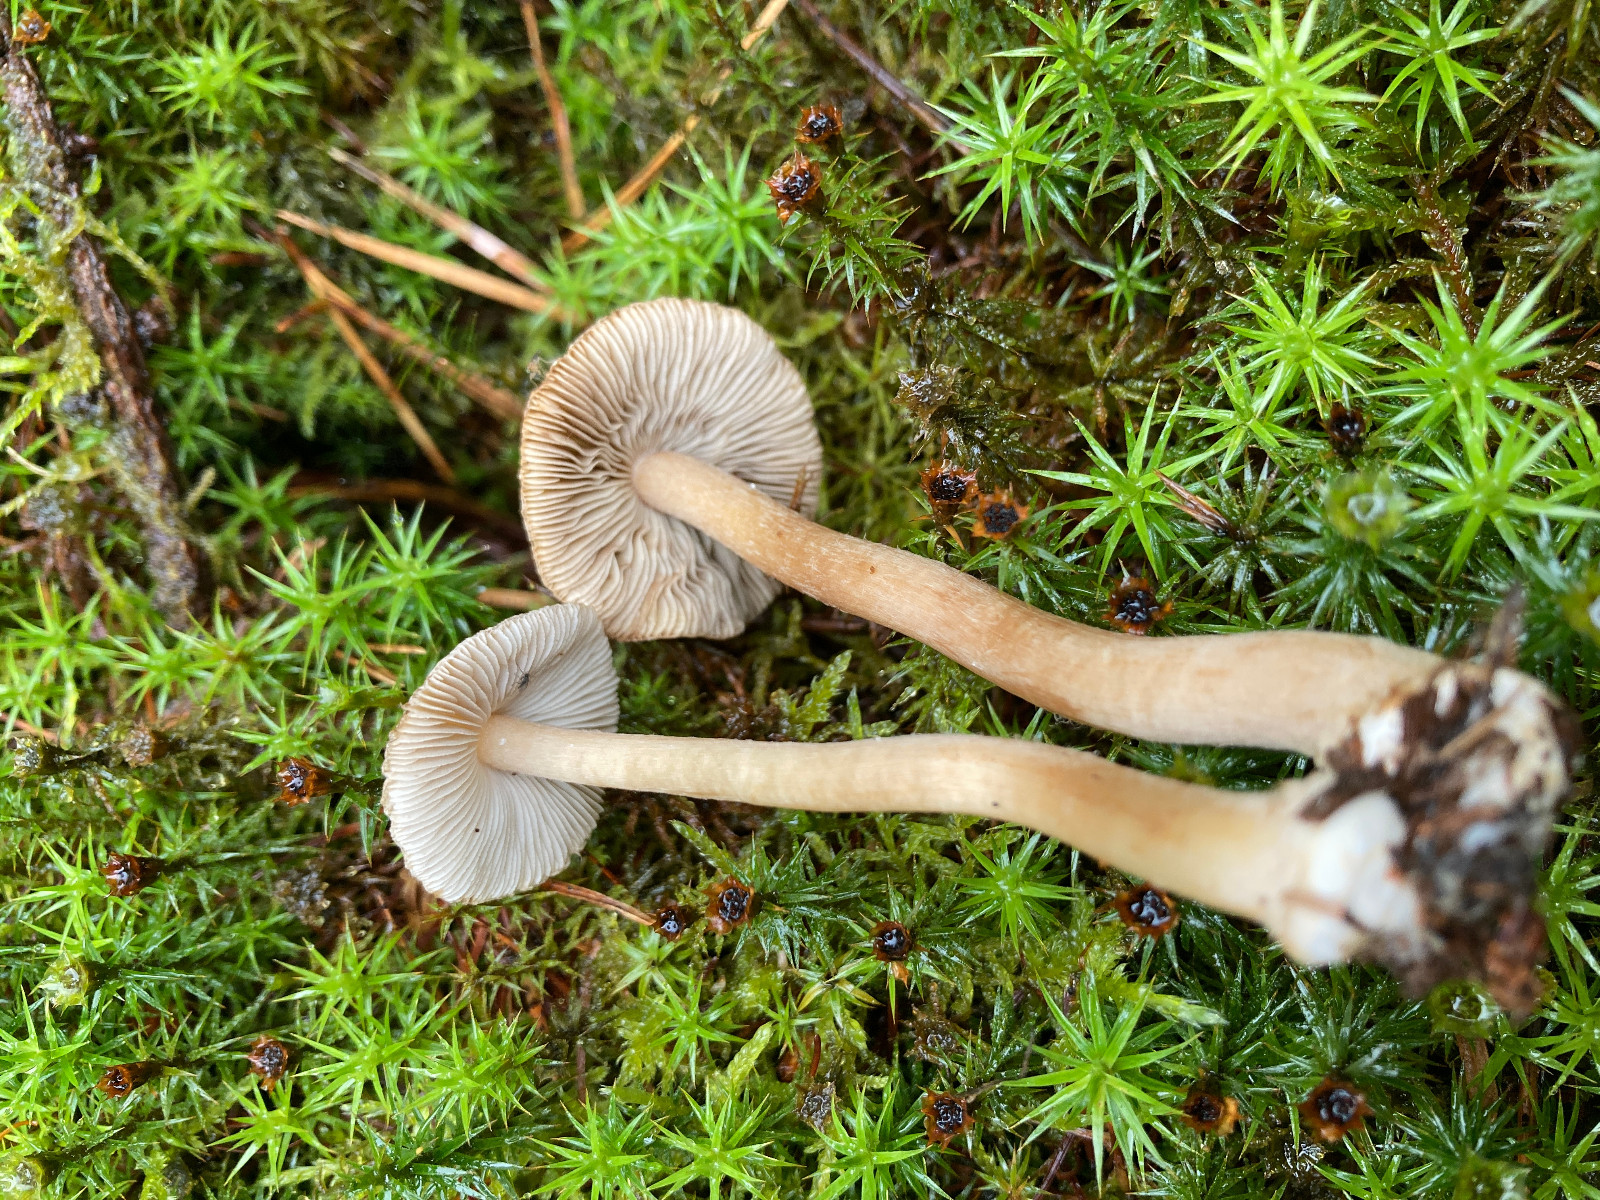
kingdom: Fungi
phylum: Basidiomycota
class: Agaricomycetes
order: Agaricales
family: Inocybaceae
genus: Inocybe
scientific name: Inocybe napipes
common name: roeknoldet trævlhat
